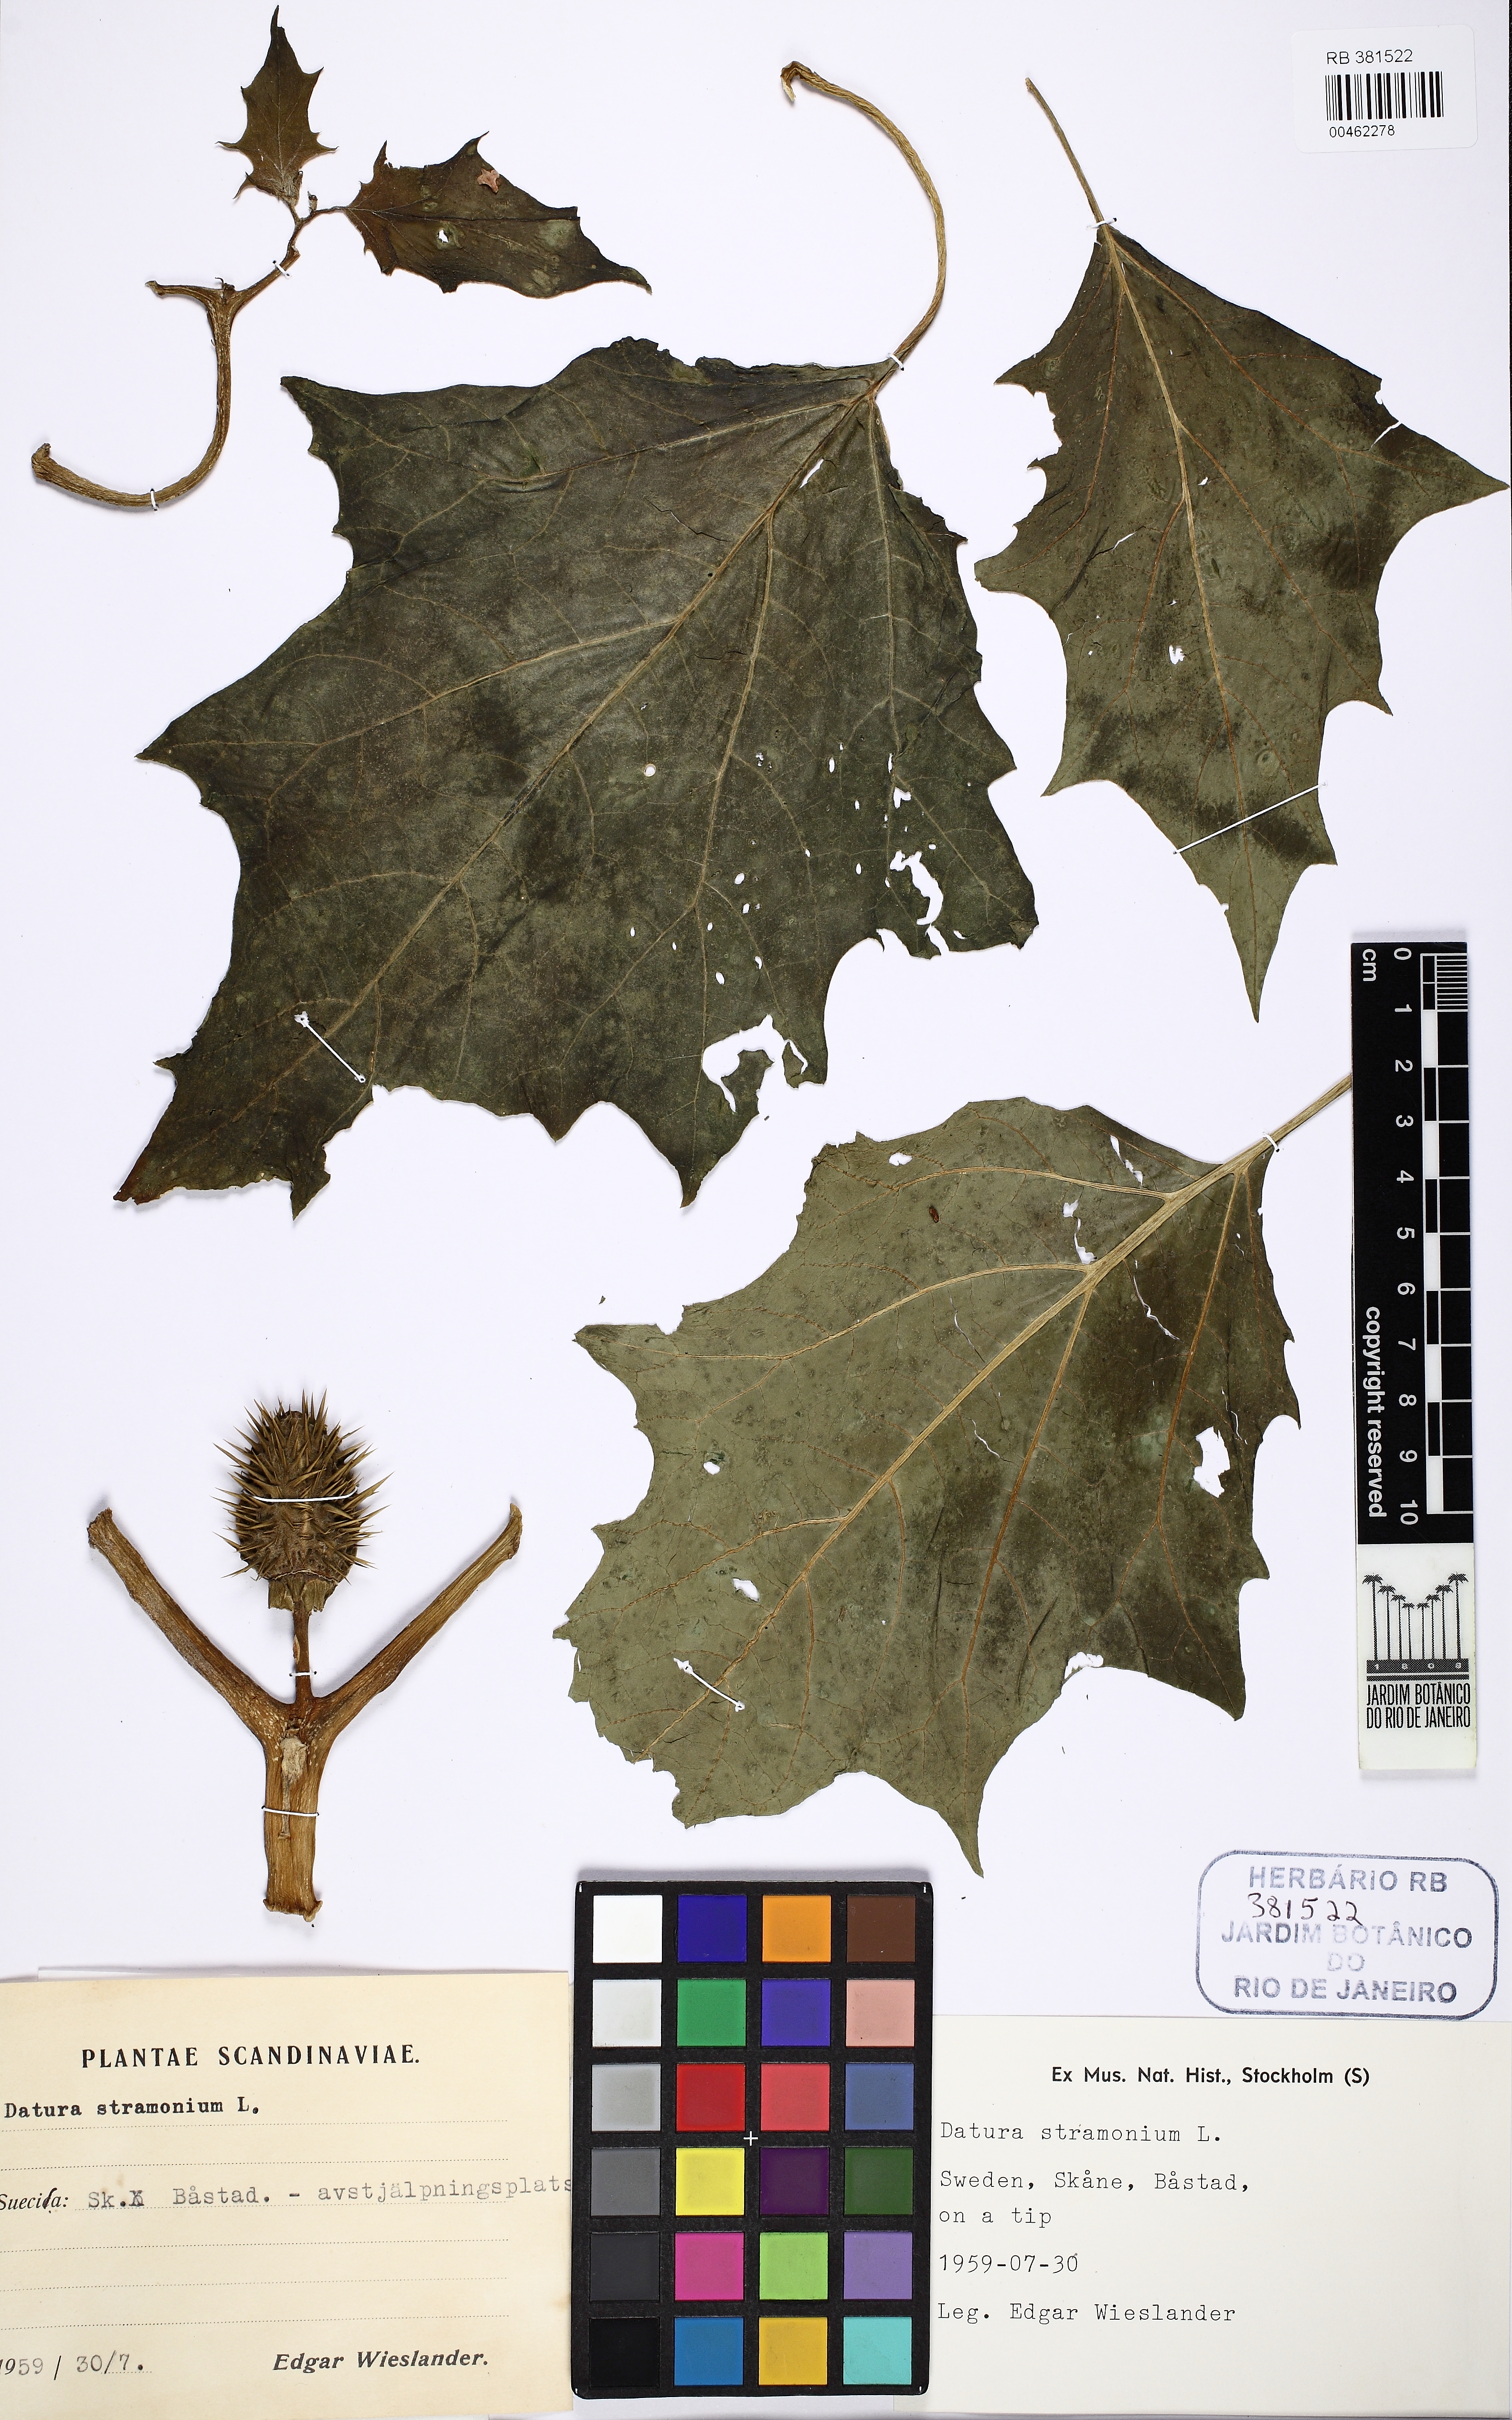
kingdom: Plantae
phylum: Tracheophyta
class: Magnoliopsida
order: Solanales
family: Solanaceae
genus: Datura
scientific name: Datura stramonium
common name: Thorn-apple
